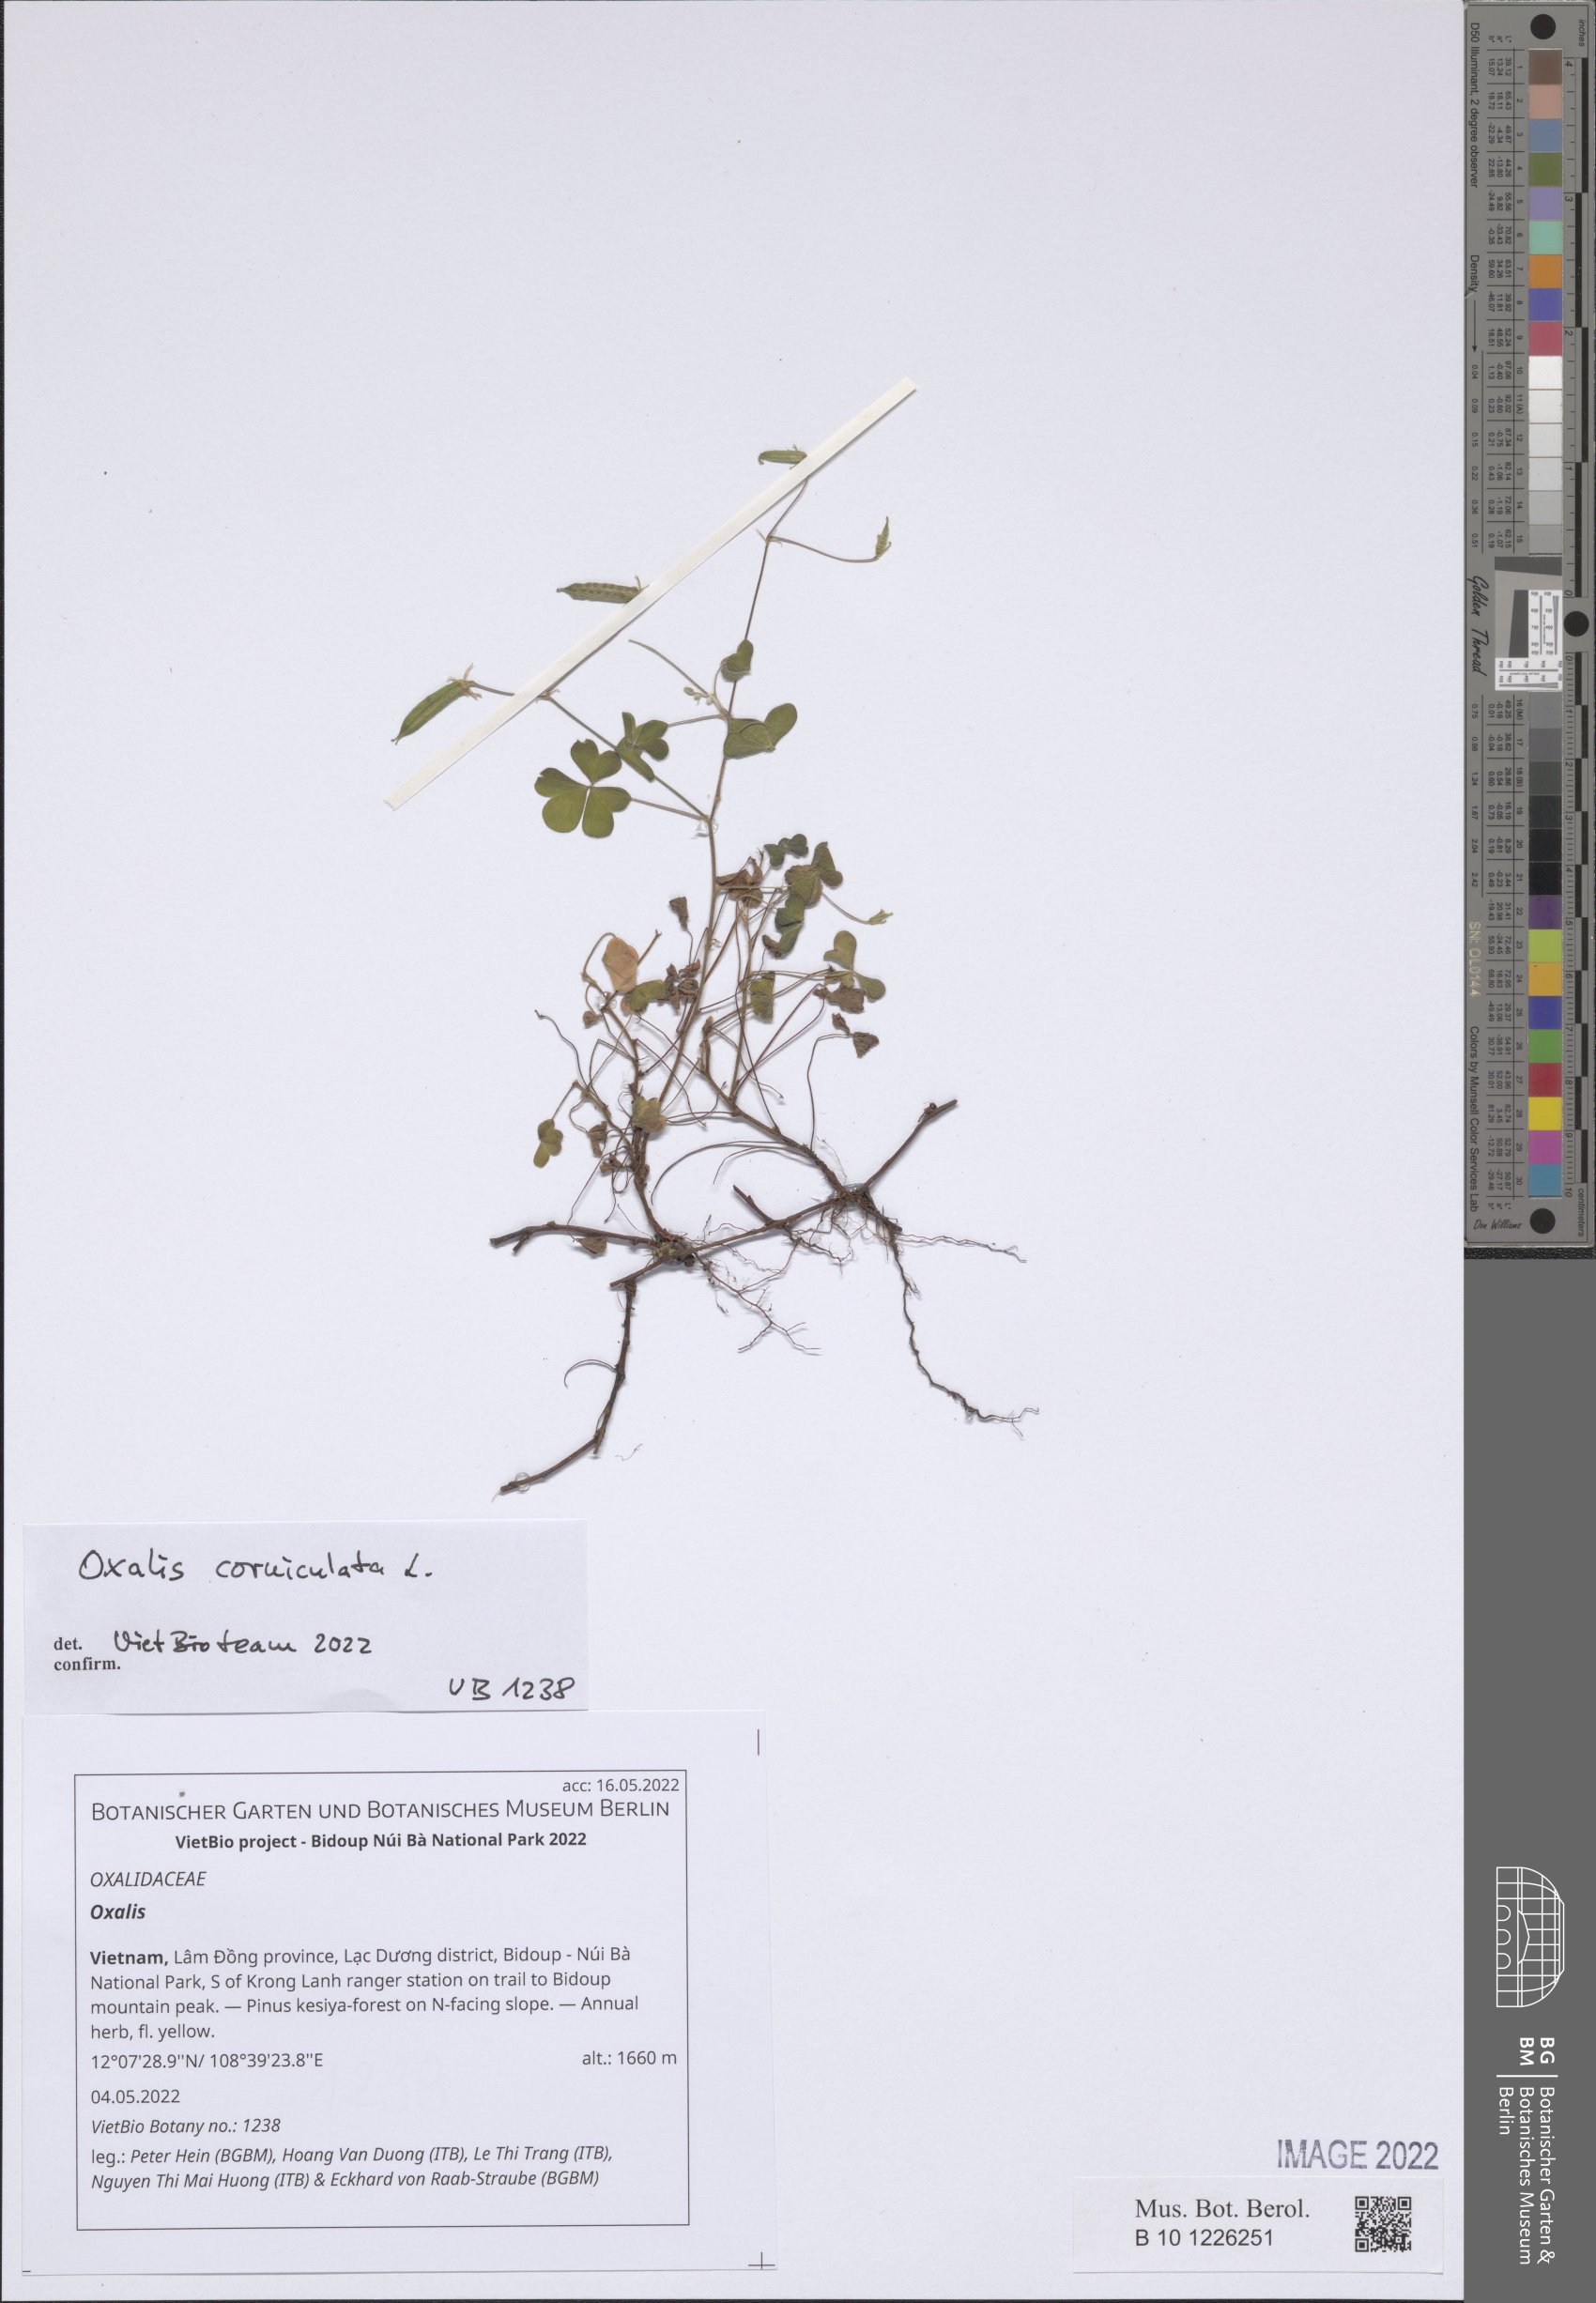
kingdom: Plantae
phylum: Tracheophyta
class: Magnoliopsida
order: Oxalidales
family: Oxalidaceae
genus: Oxalis
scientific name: Oxalis
